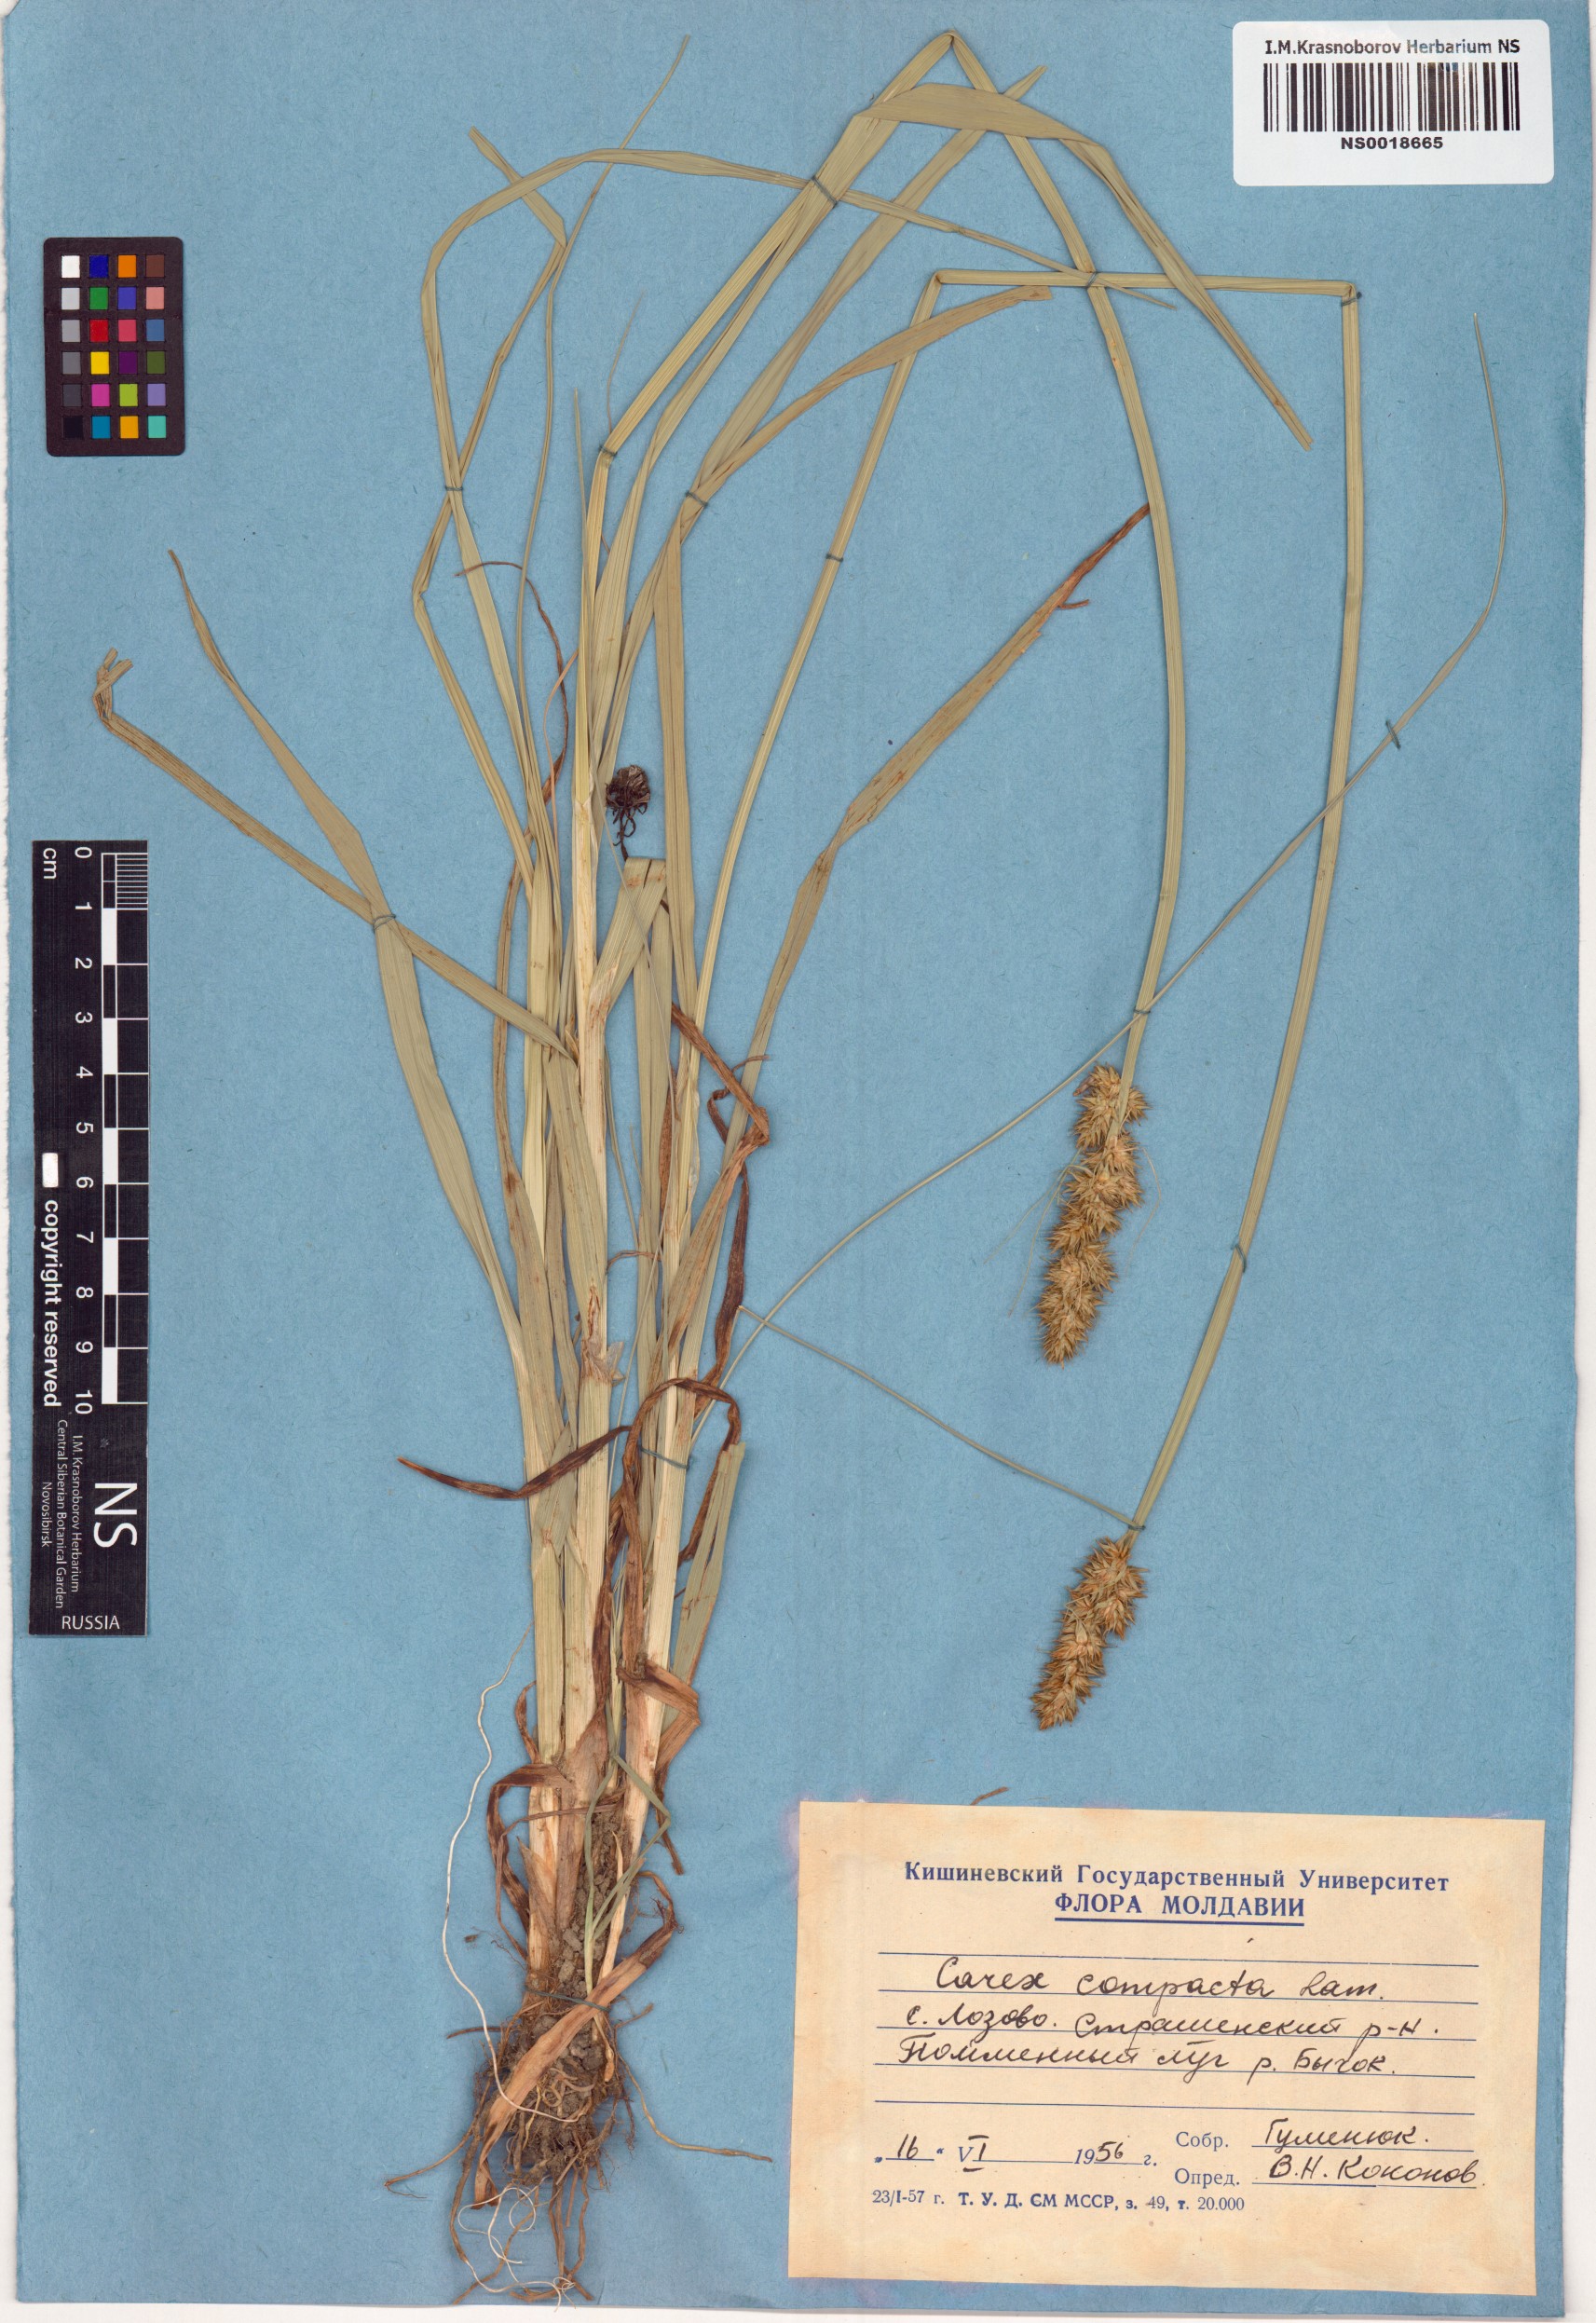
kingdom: Plantae
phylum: Tracheophyta
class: Liliopsida
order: Poales
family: Cyperaceae
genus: Carex
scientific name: Carex vulpina
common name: True fox-sedge
